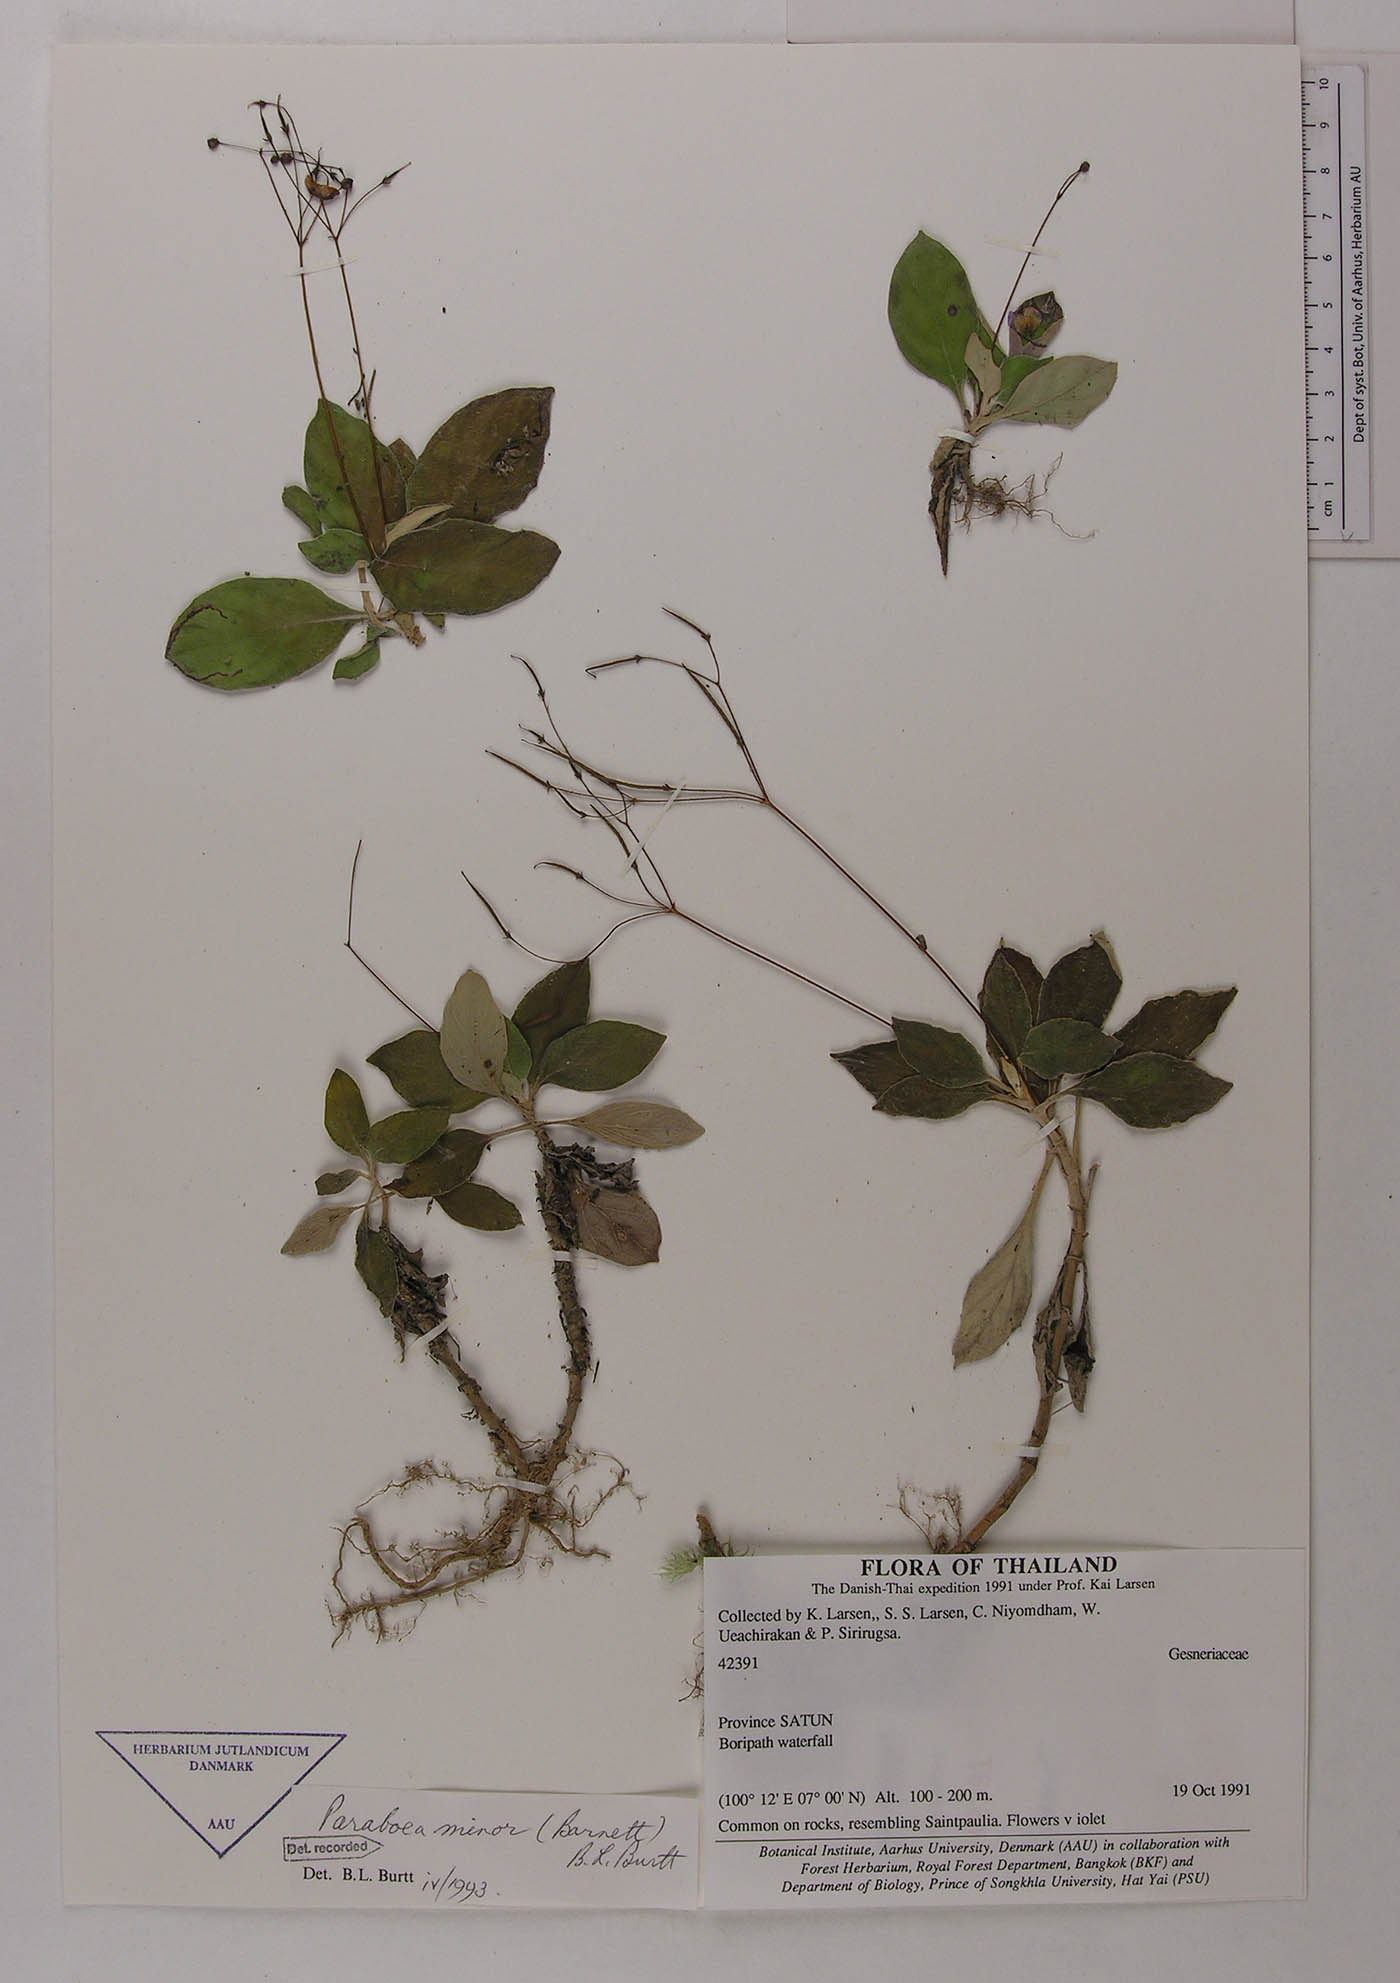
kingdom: Plantae
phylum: Tracheophyta
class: Magnoliopsida
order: Lamiales
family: Gesneriaceae
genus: Paraboea
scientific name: Paraboea minor
